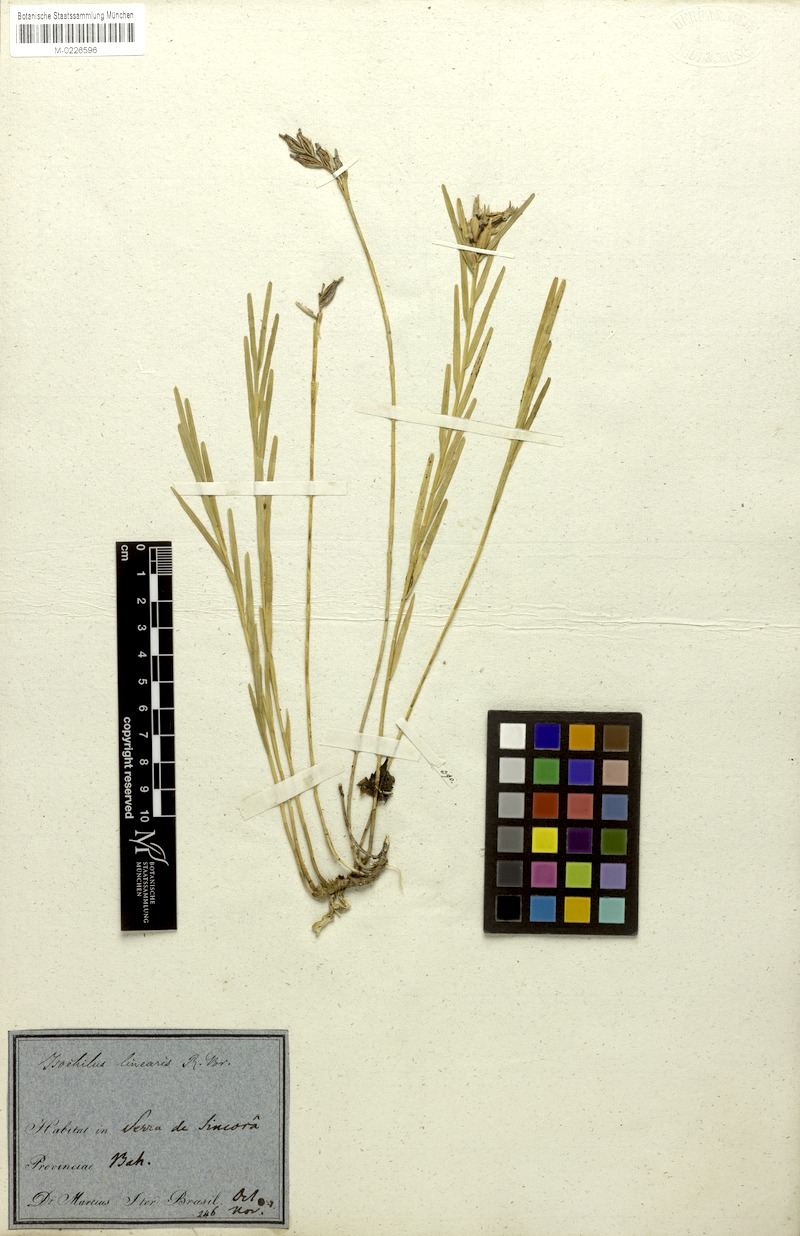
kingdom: Plantae
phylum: Tracheophyta
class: Liliopsida
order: Asparagales
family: Orchidaceae
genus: Isochilus
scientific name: Isochilus linearis
